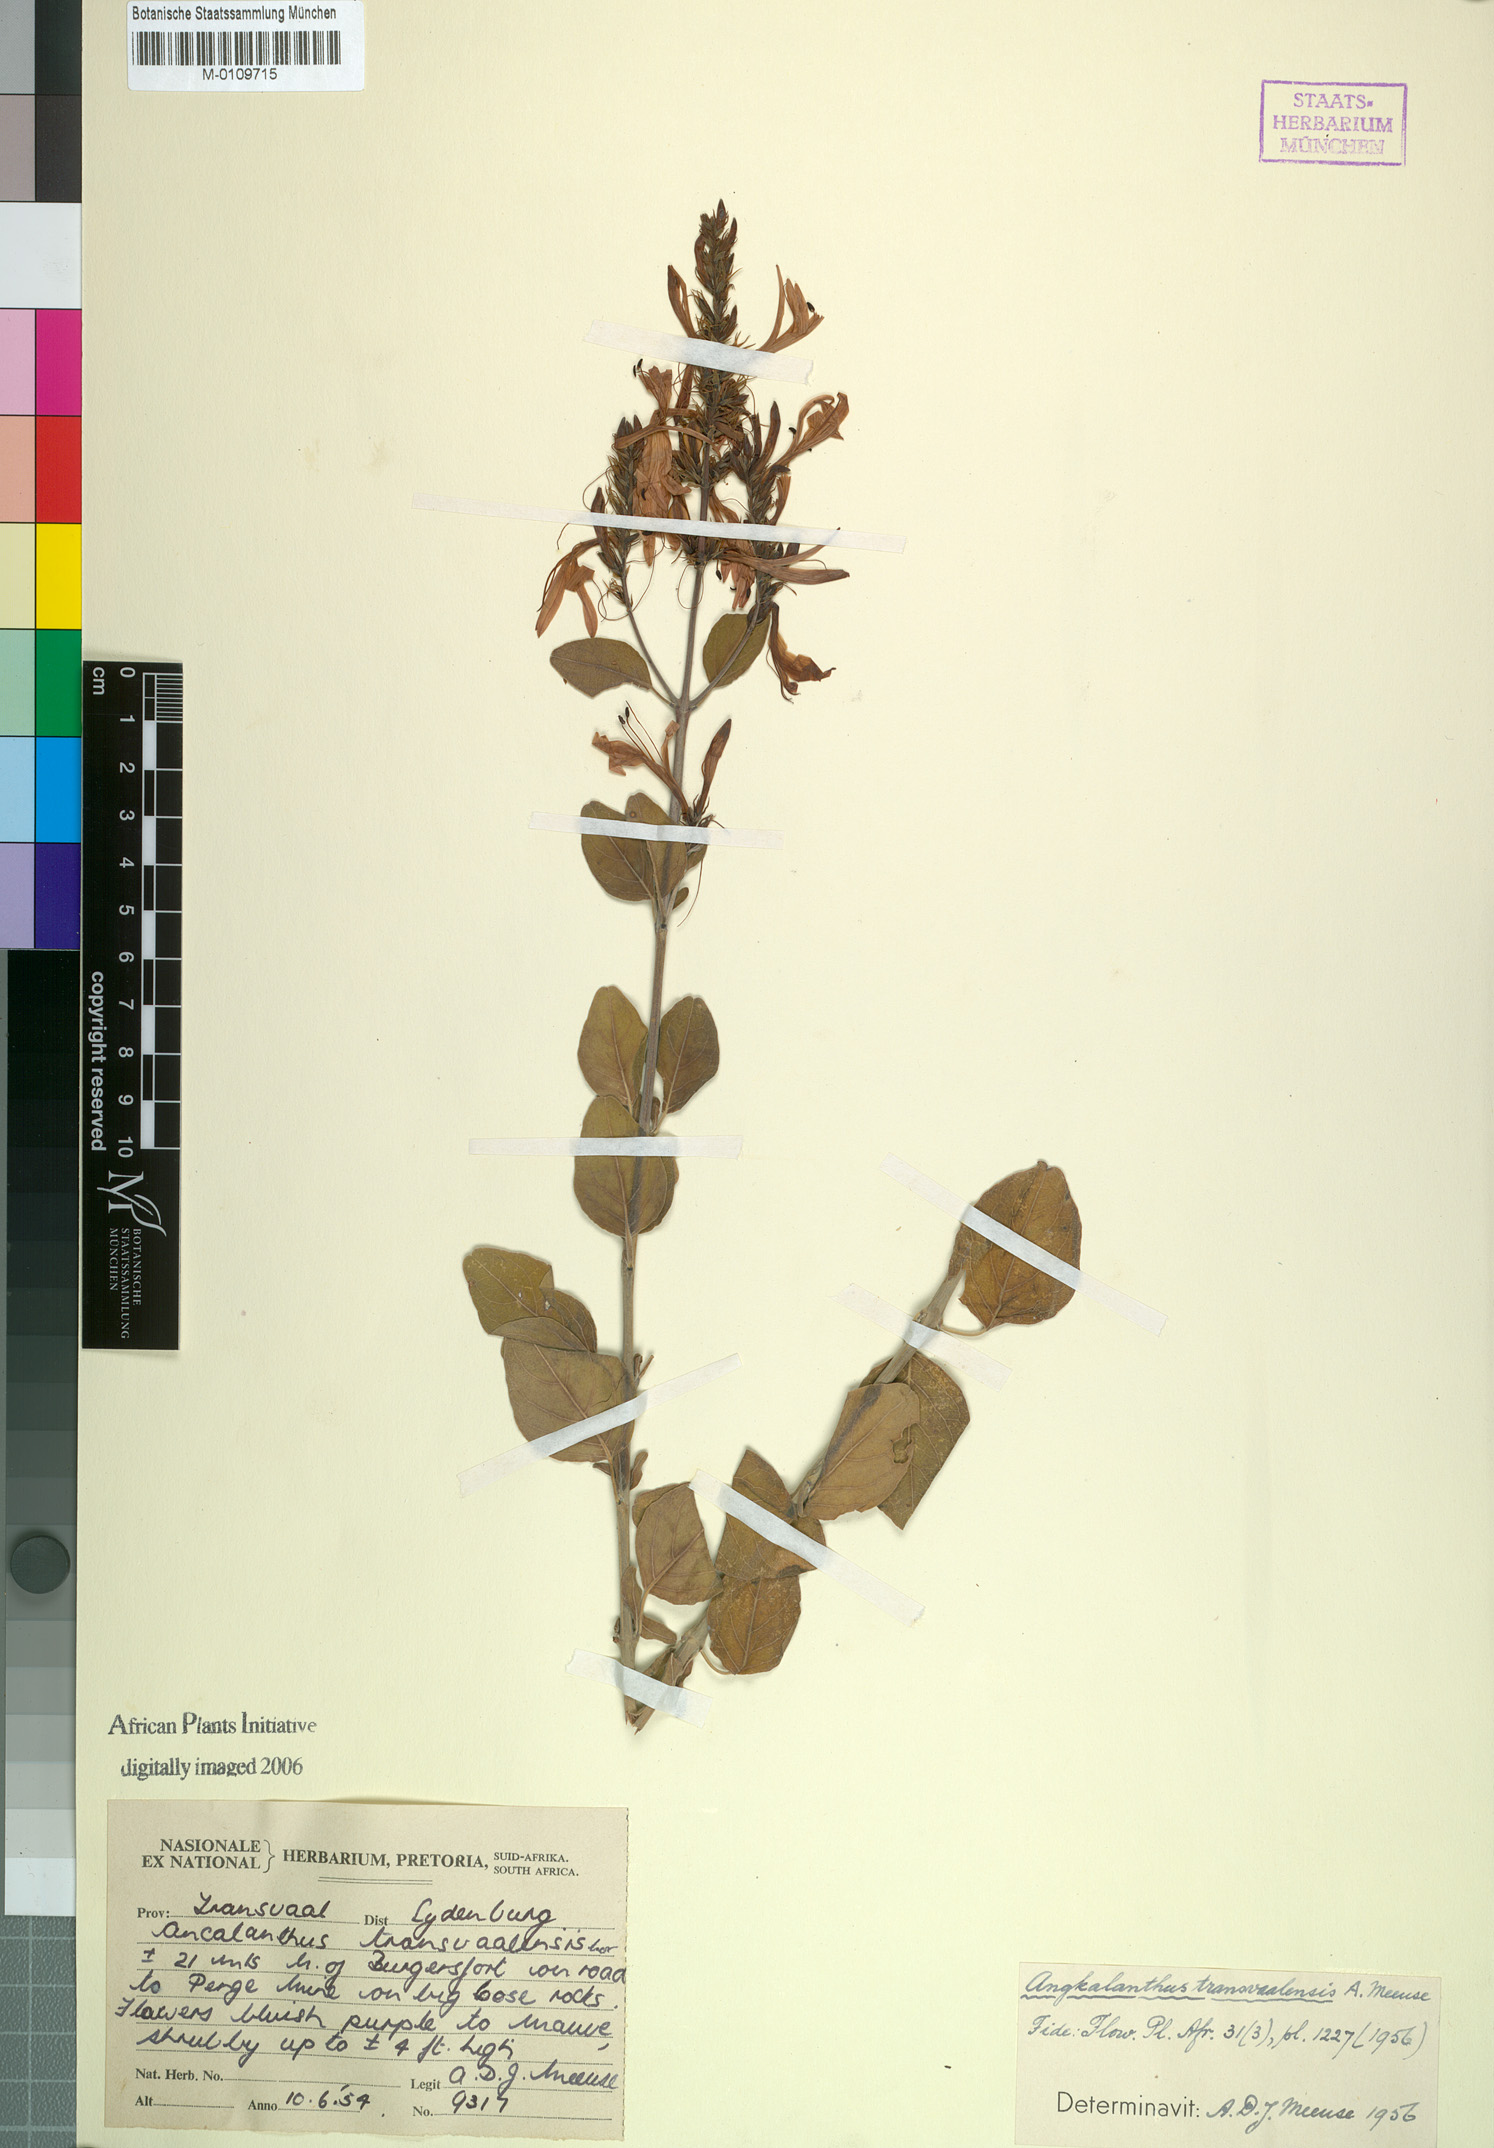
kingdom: Plantae
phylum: Tracheophyta
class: Magnoliopsida
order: Lamiales
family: Acanthaceae
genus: Chorisochora
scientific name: Chorisochora transvaalensis
